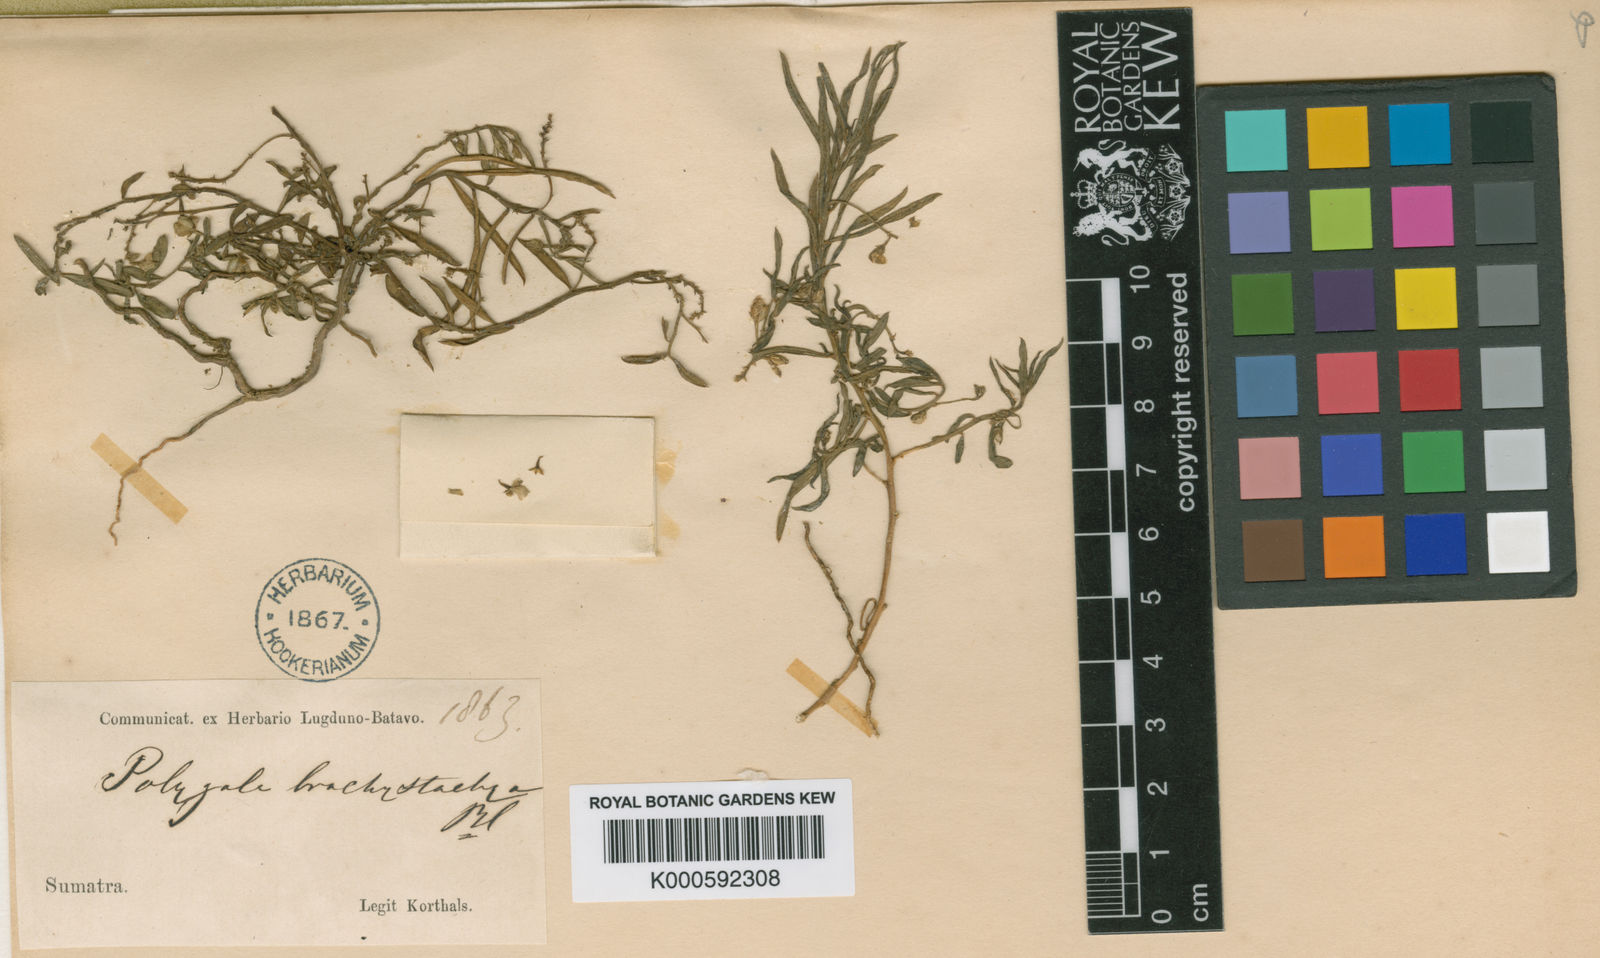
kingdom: Plantae
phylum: Tracheophyta
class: Magnoliopsida
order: Fabales
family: Polygalaceae
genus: Polygala
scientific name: Polygala glaucoides
